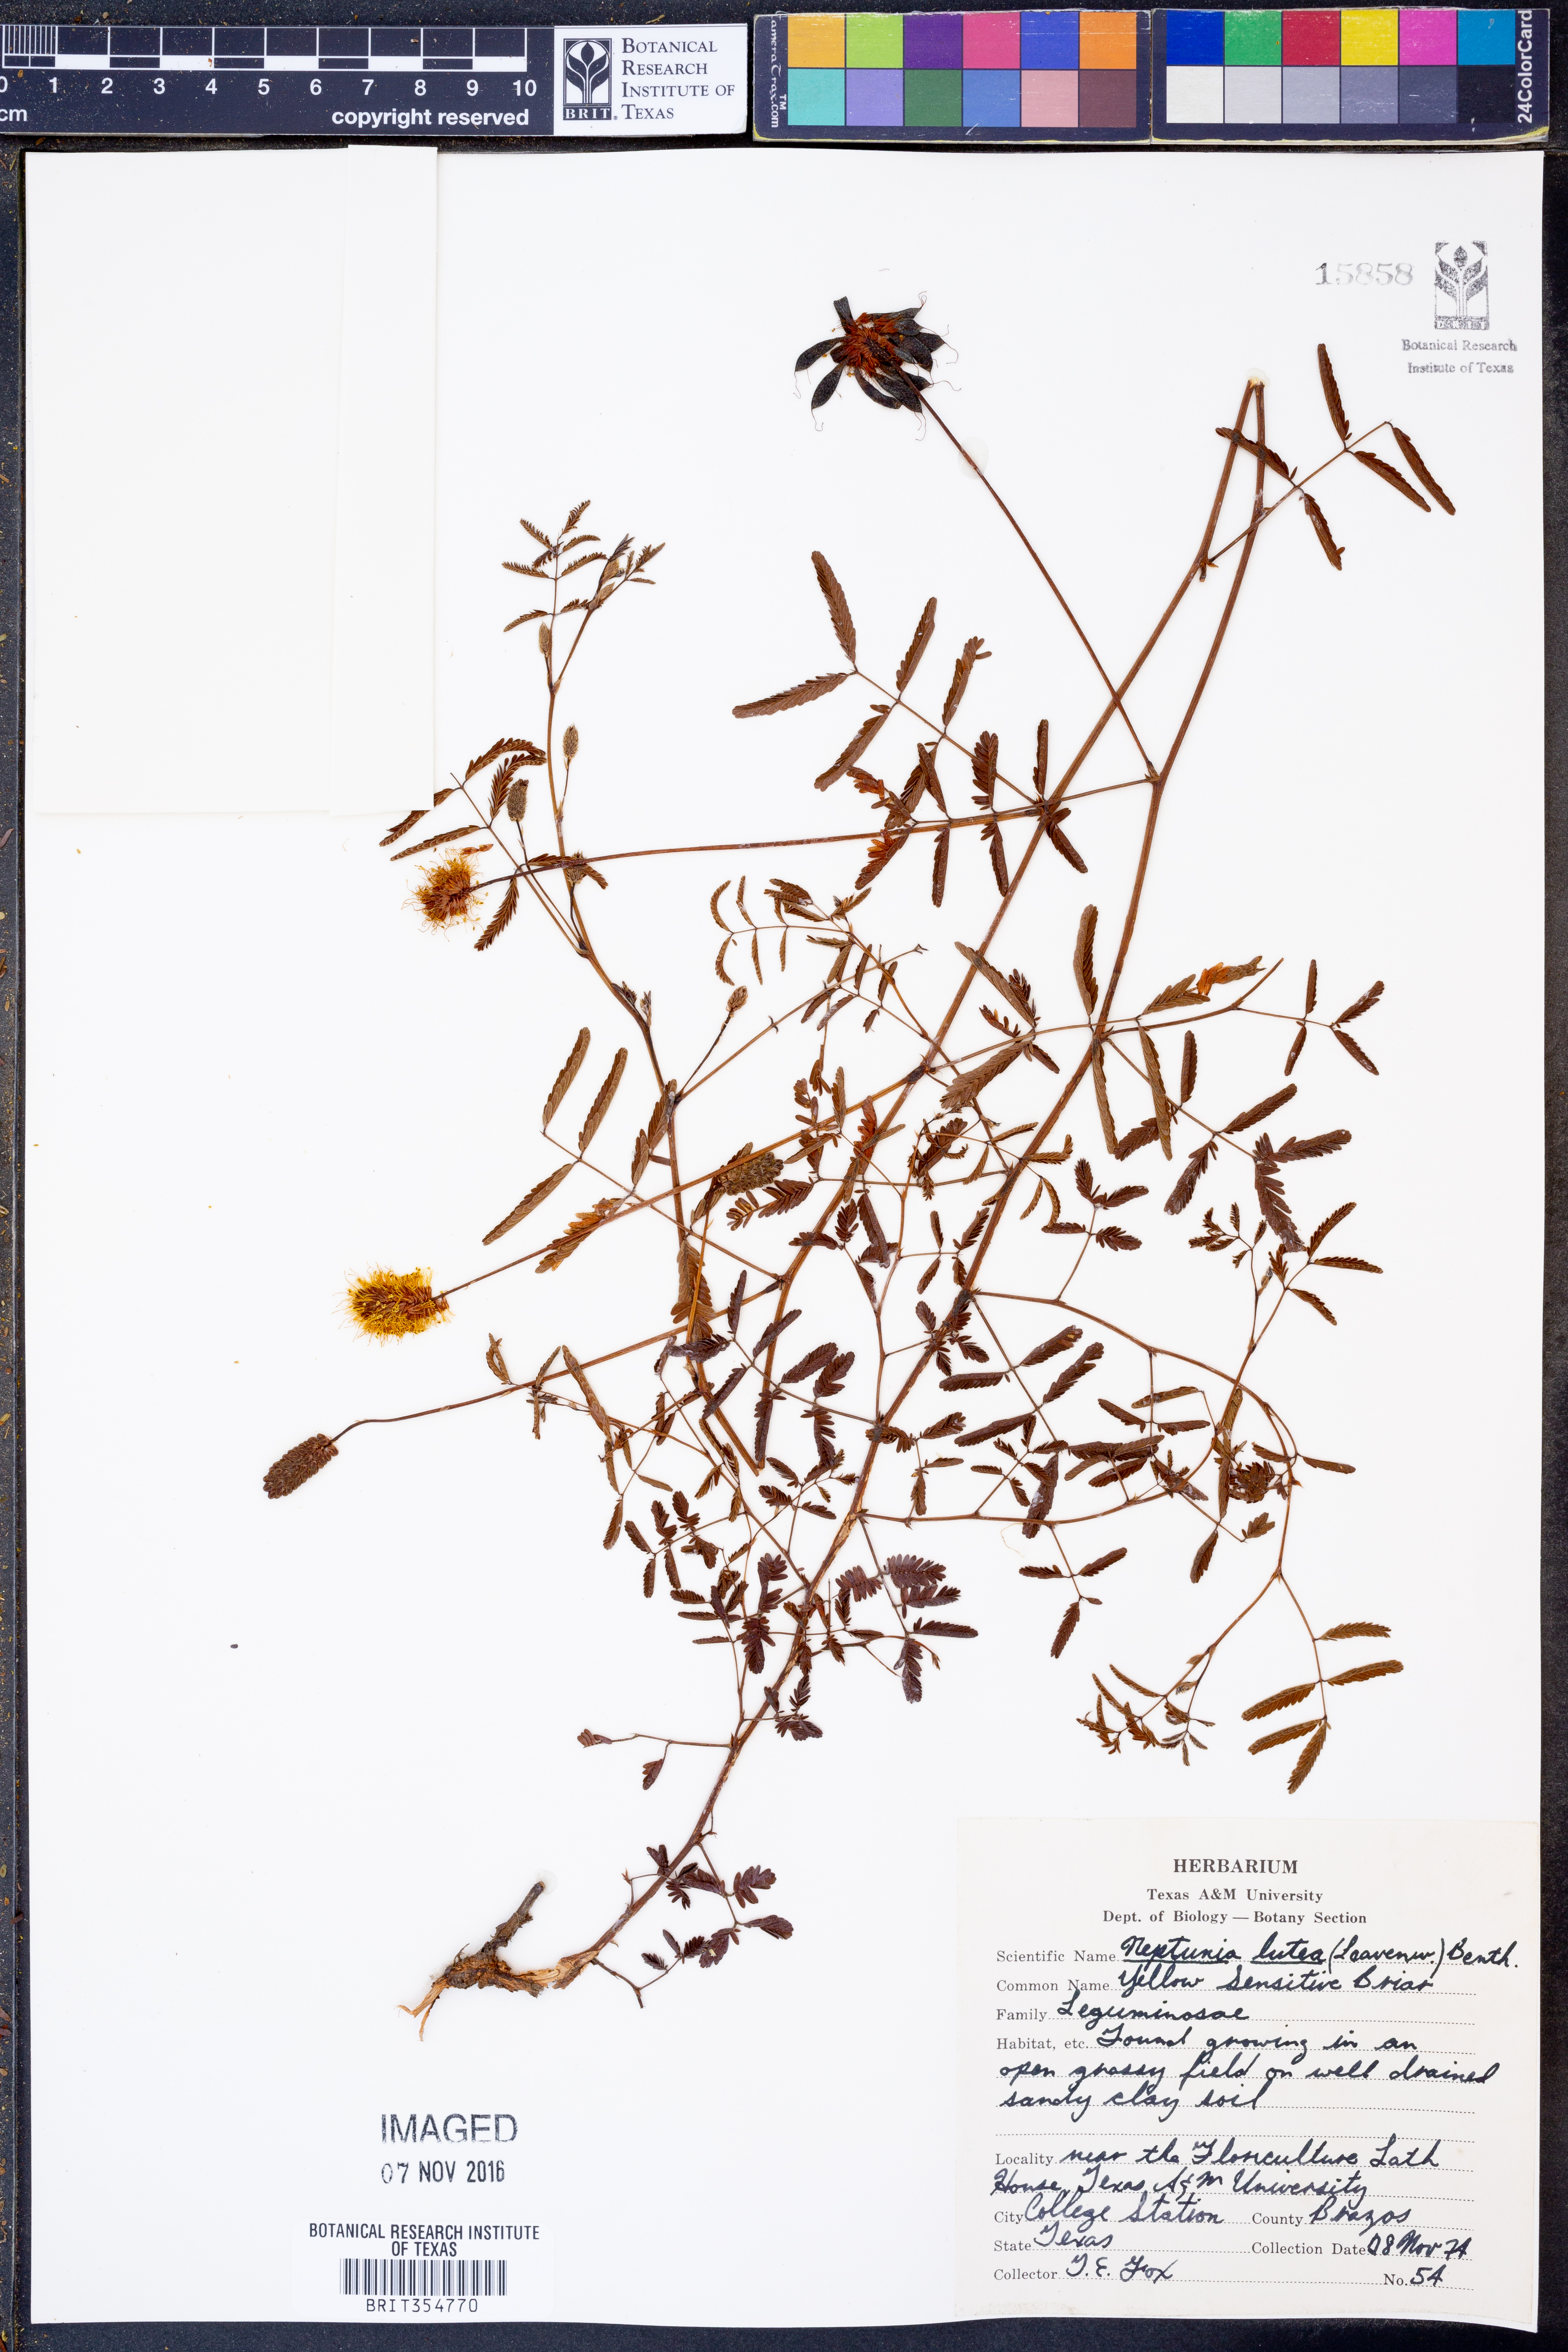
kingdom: Plantae
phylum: Tracheophyta
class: Magnoliopsida
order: Fabales
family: Fabaceae
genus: Neptunia
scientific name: Neptunia lutea
